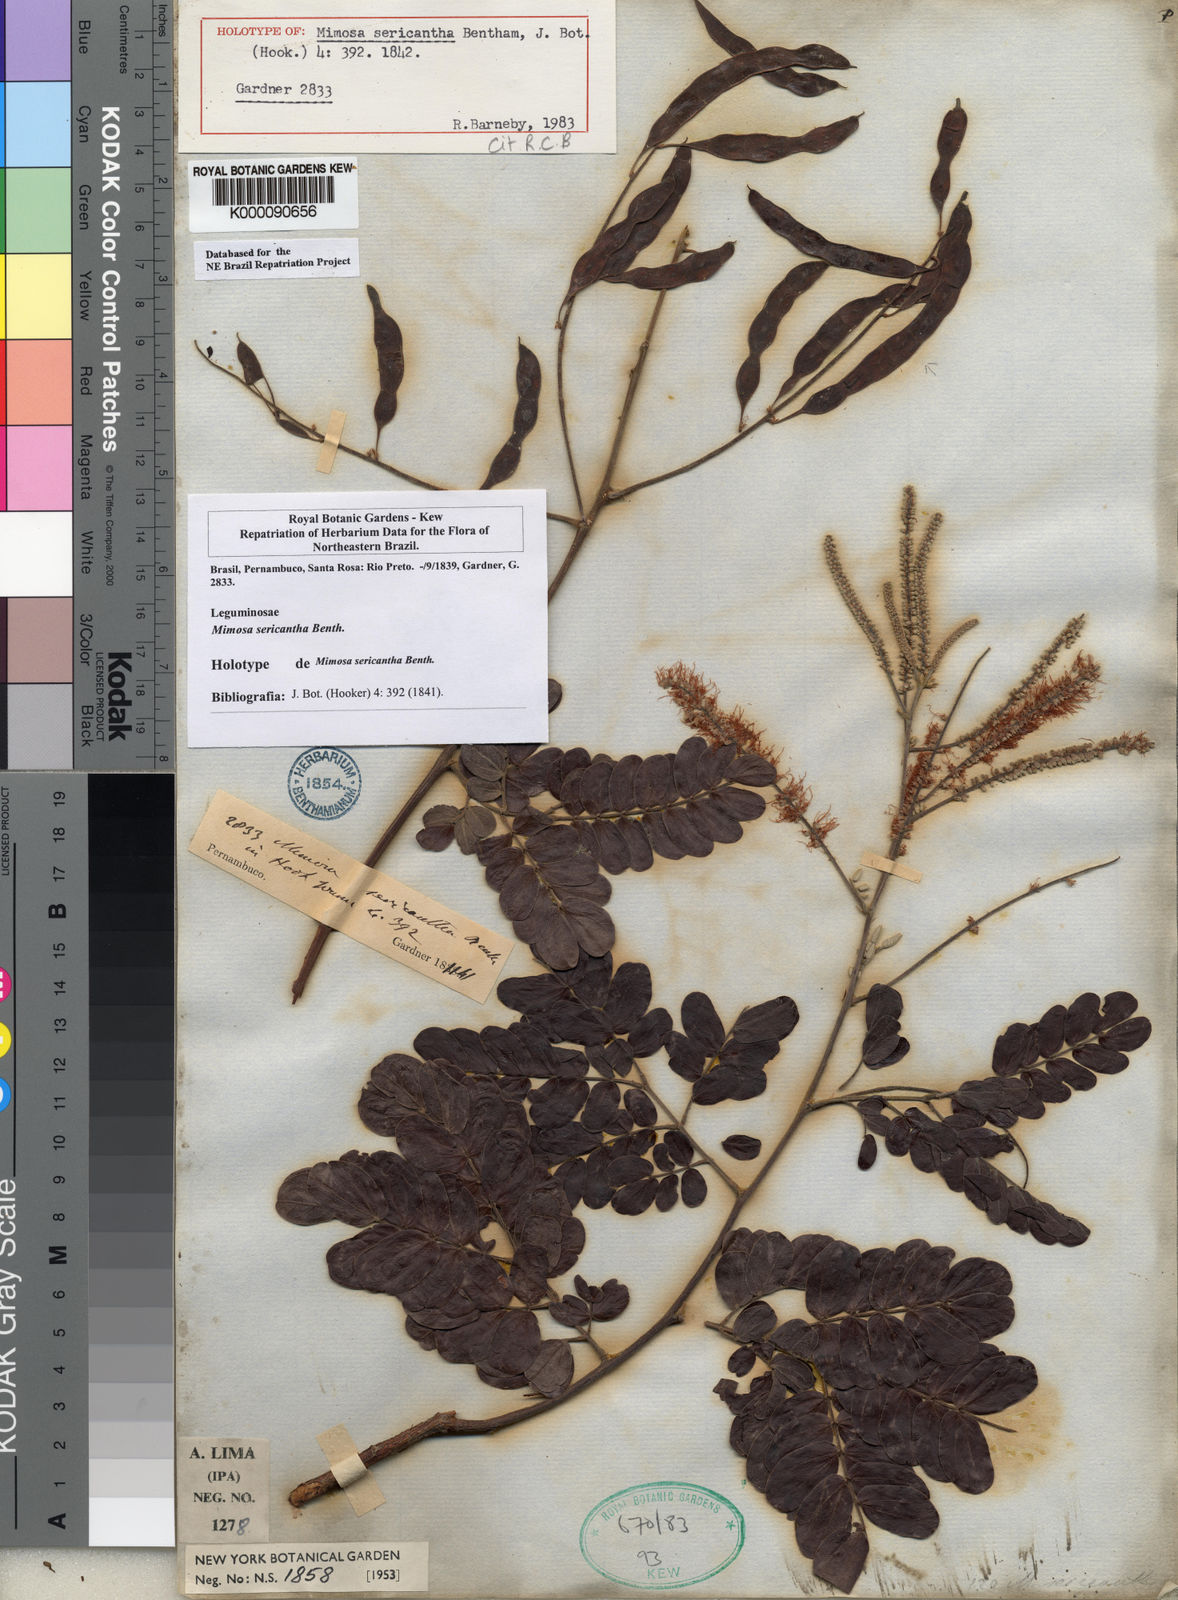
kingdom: Plantae
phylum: Tracheophyta
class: Magnoliopsida
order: Fabales
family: Fabaceae
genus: Mimosa
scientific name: Mimosa sericantha
